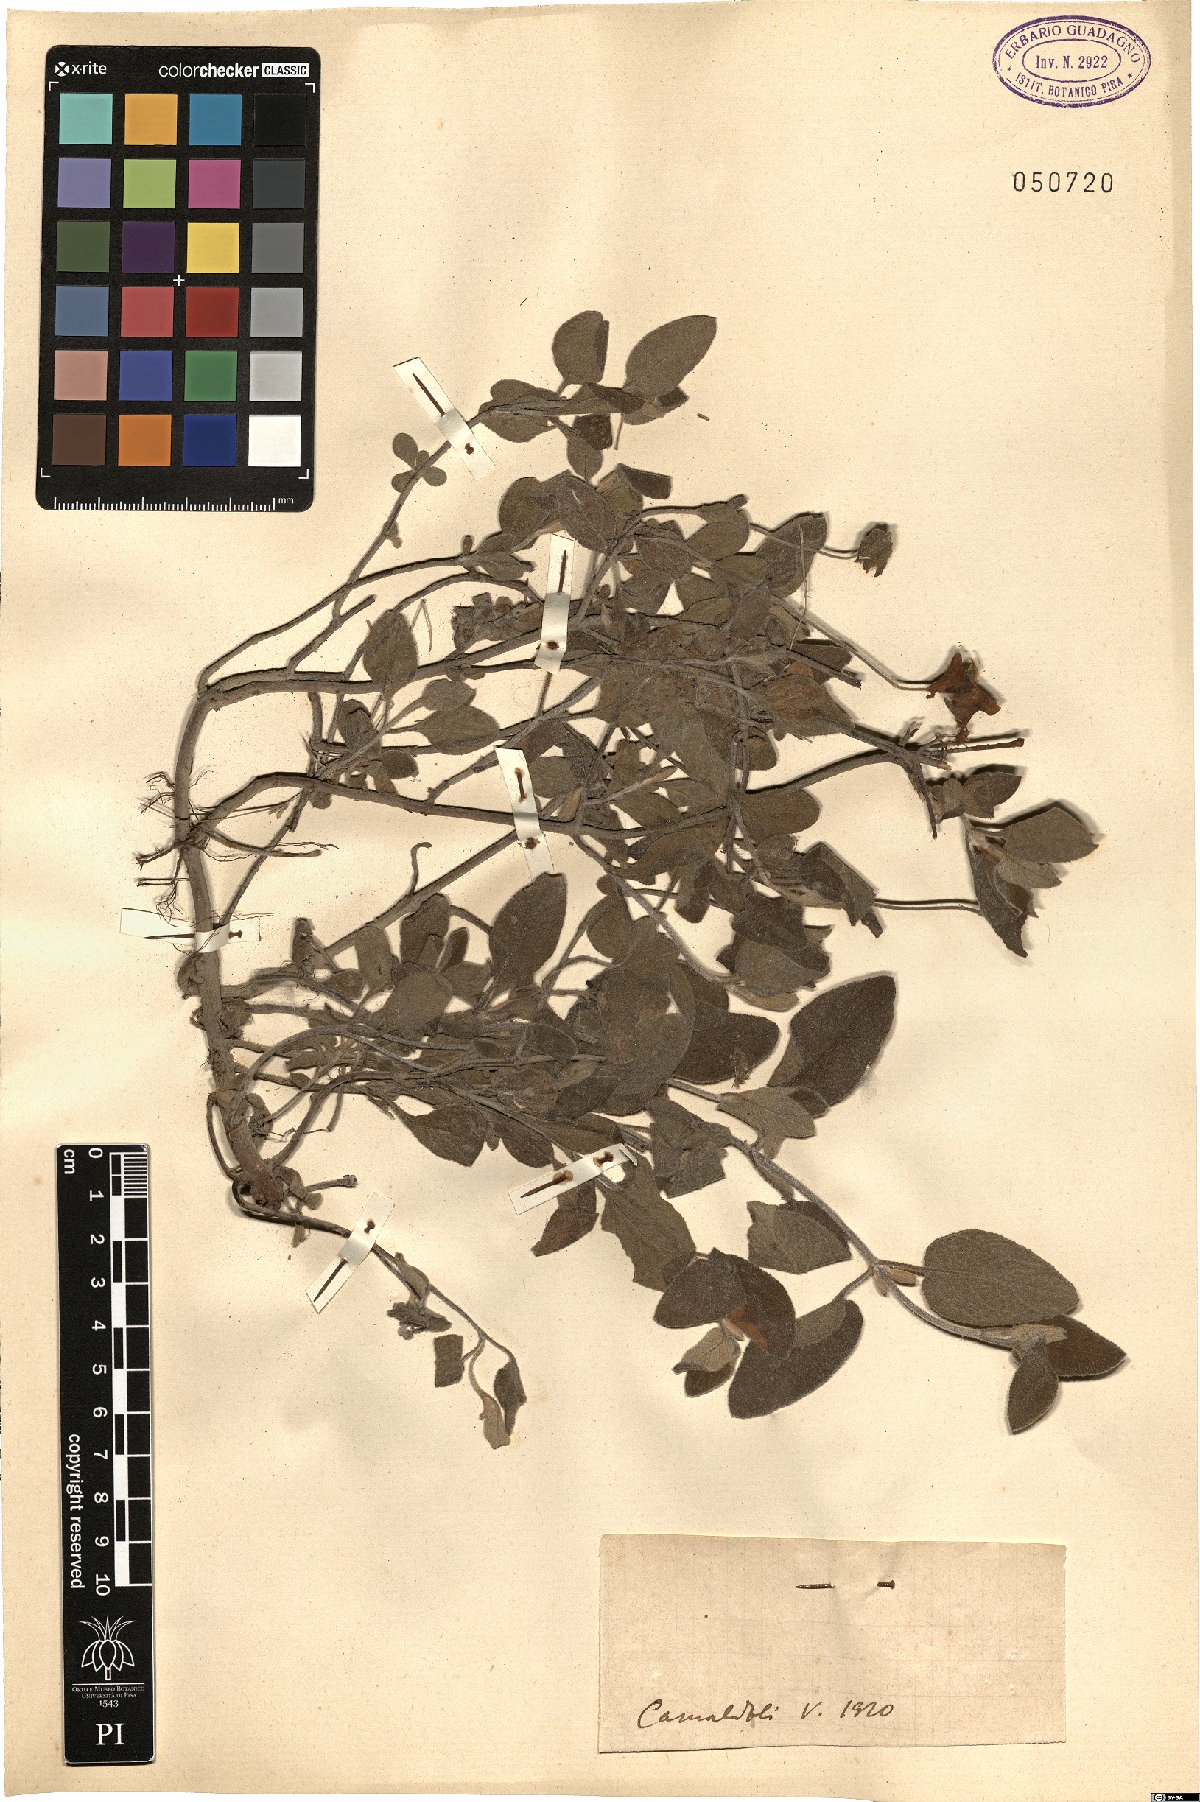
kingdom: Plantae
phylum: Tracheophyta
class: Magnoliopsida
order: Malvales
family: Cistaceae
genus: Cistus
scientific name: Cistus
